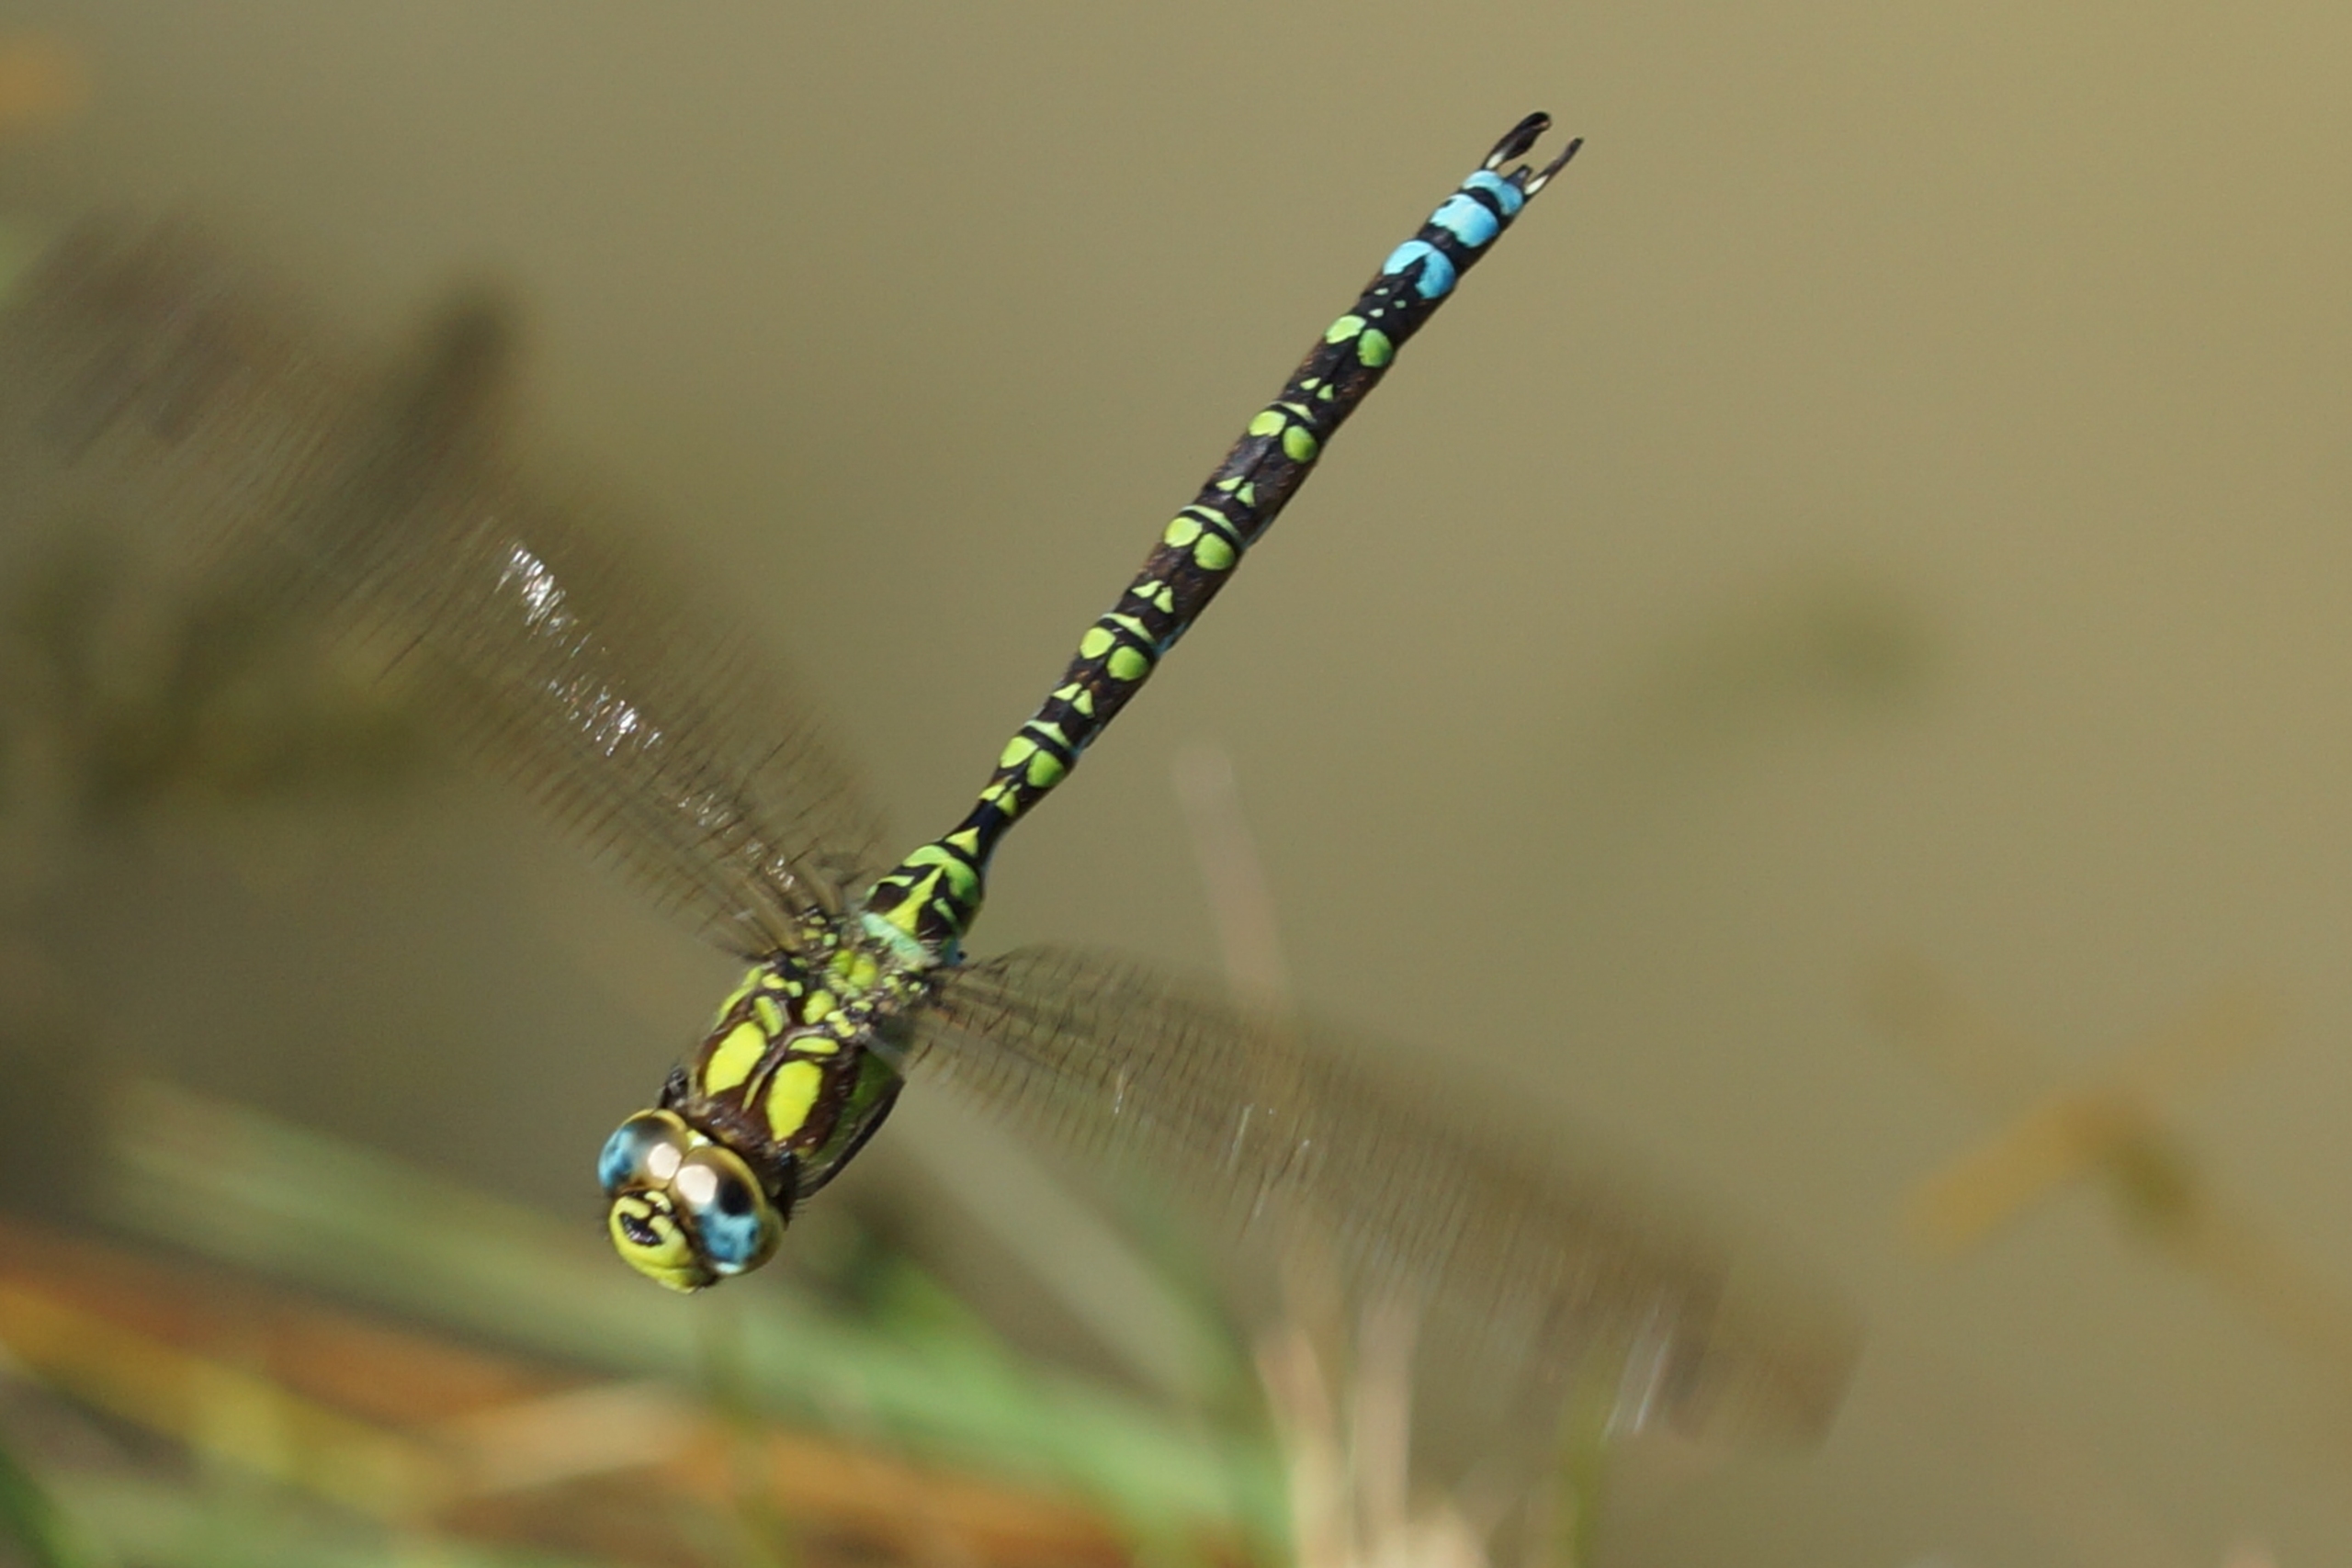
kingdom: Animalia
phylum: Arthropoda
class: Insecta
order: Odonata
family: Aeshnidae
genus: Aeshna
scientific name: Aeshna cyanea
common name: Blå mosaikguldsmed
